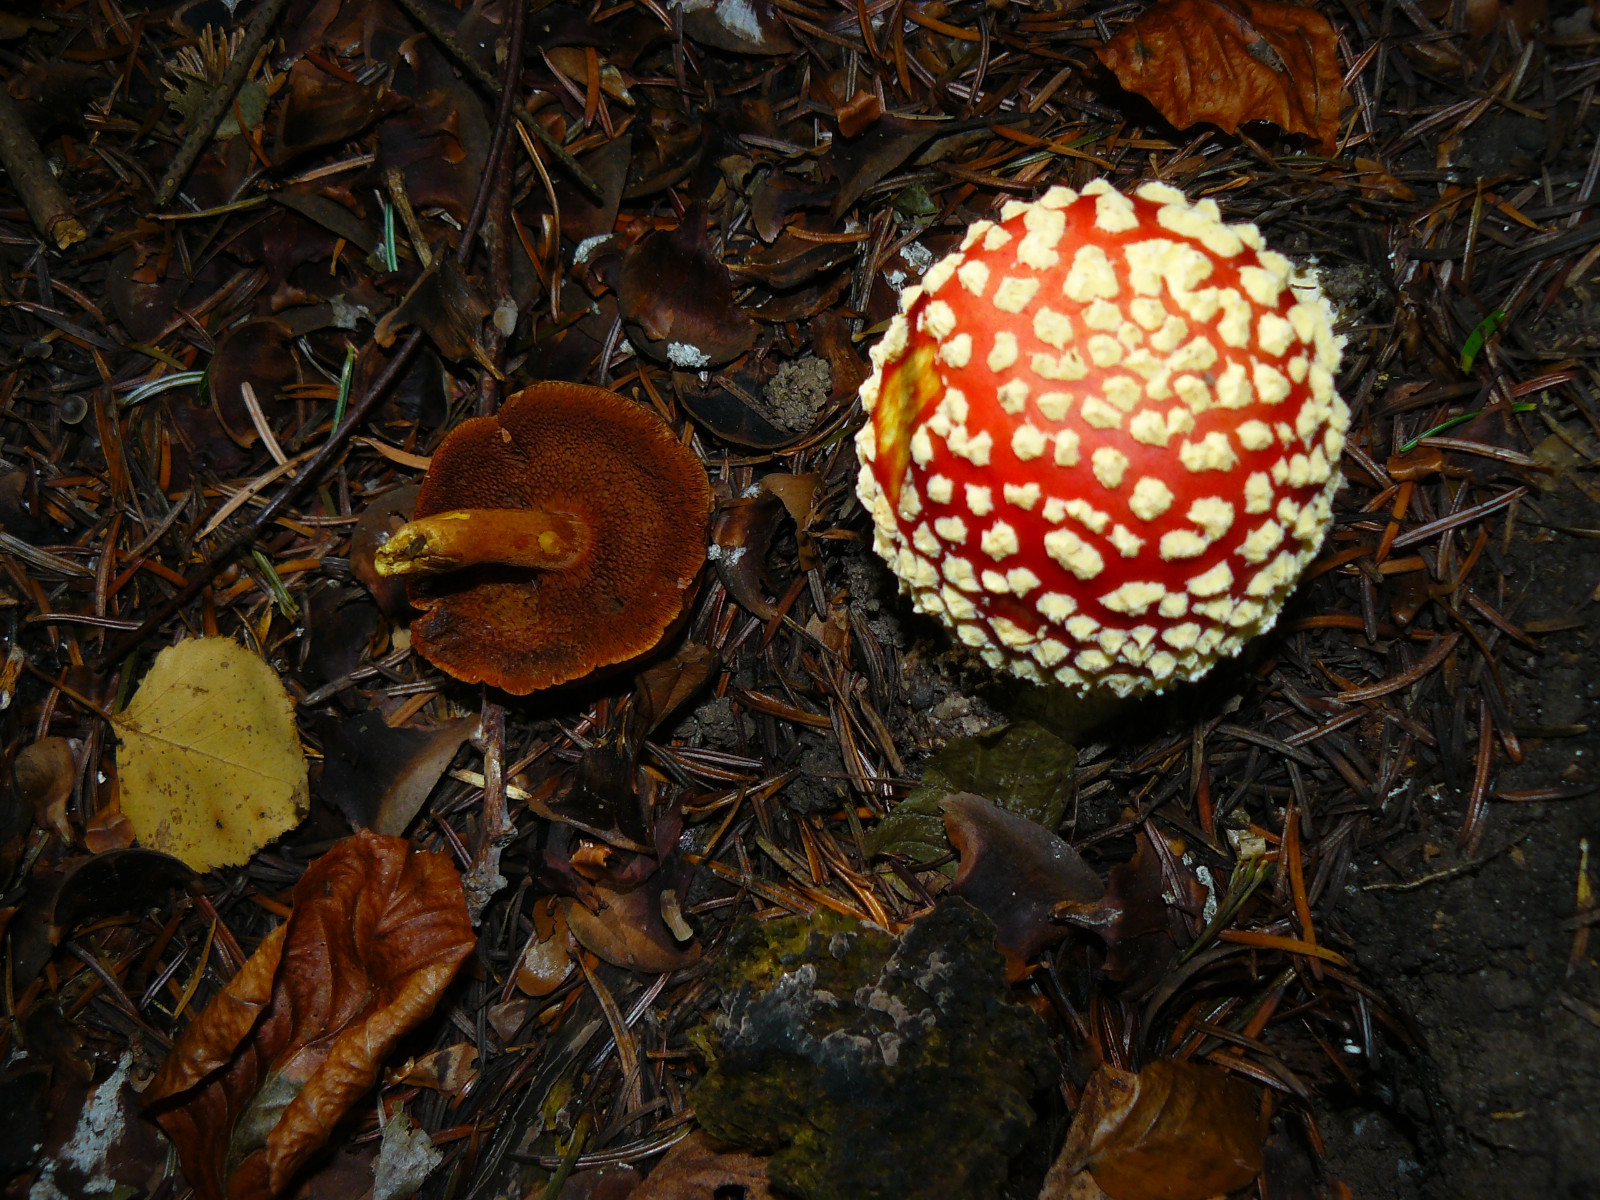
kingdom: Fungi
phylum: Basidiomycota
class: Agaricomycetes
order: Boletales
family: Boletaceae
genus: Chalciporus
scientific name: Chalciporus piperatus
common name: peberrørhat
